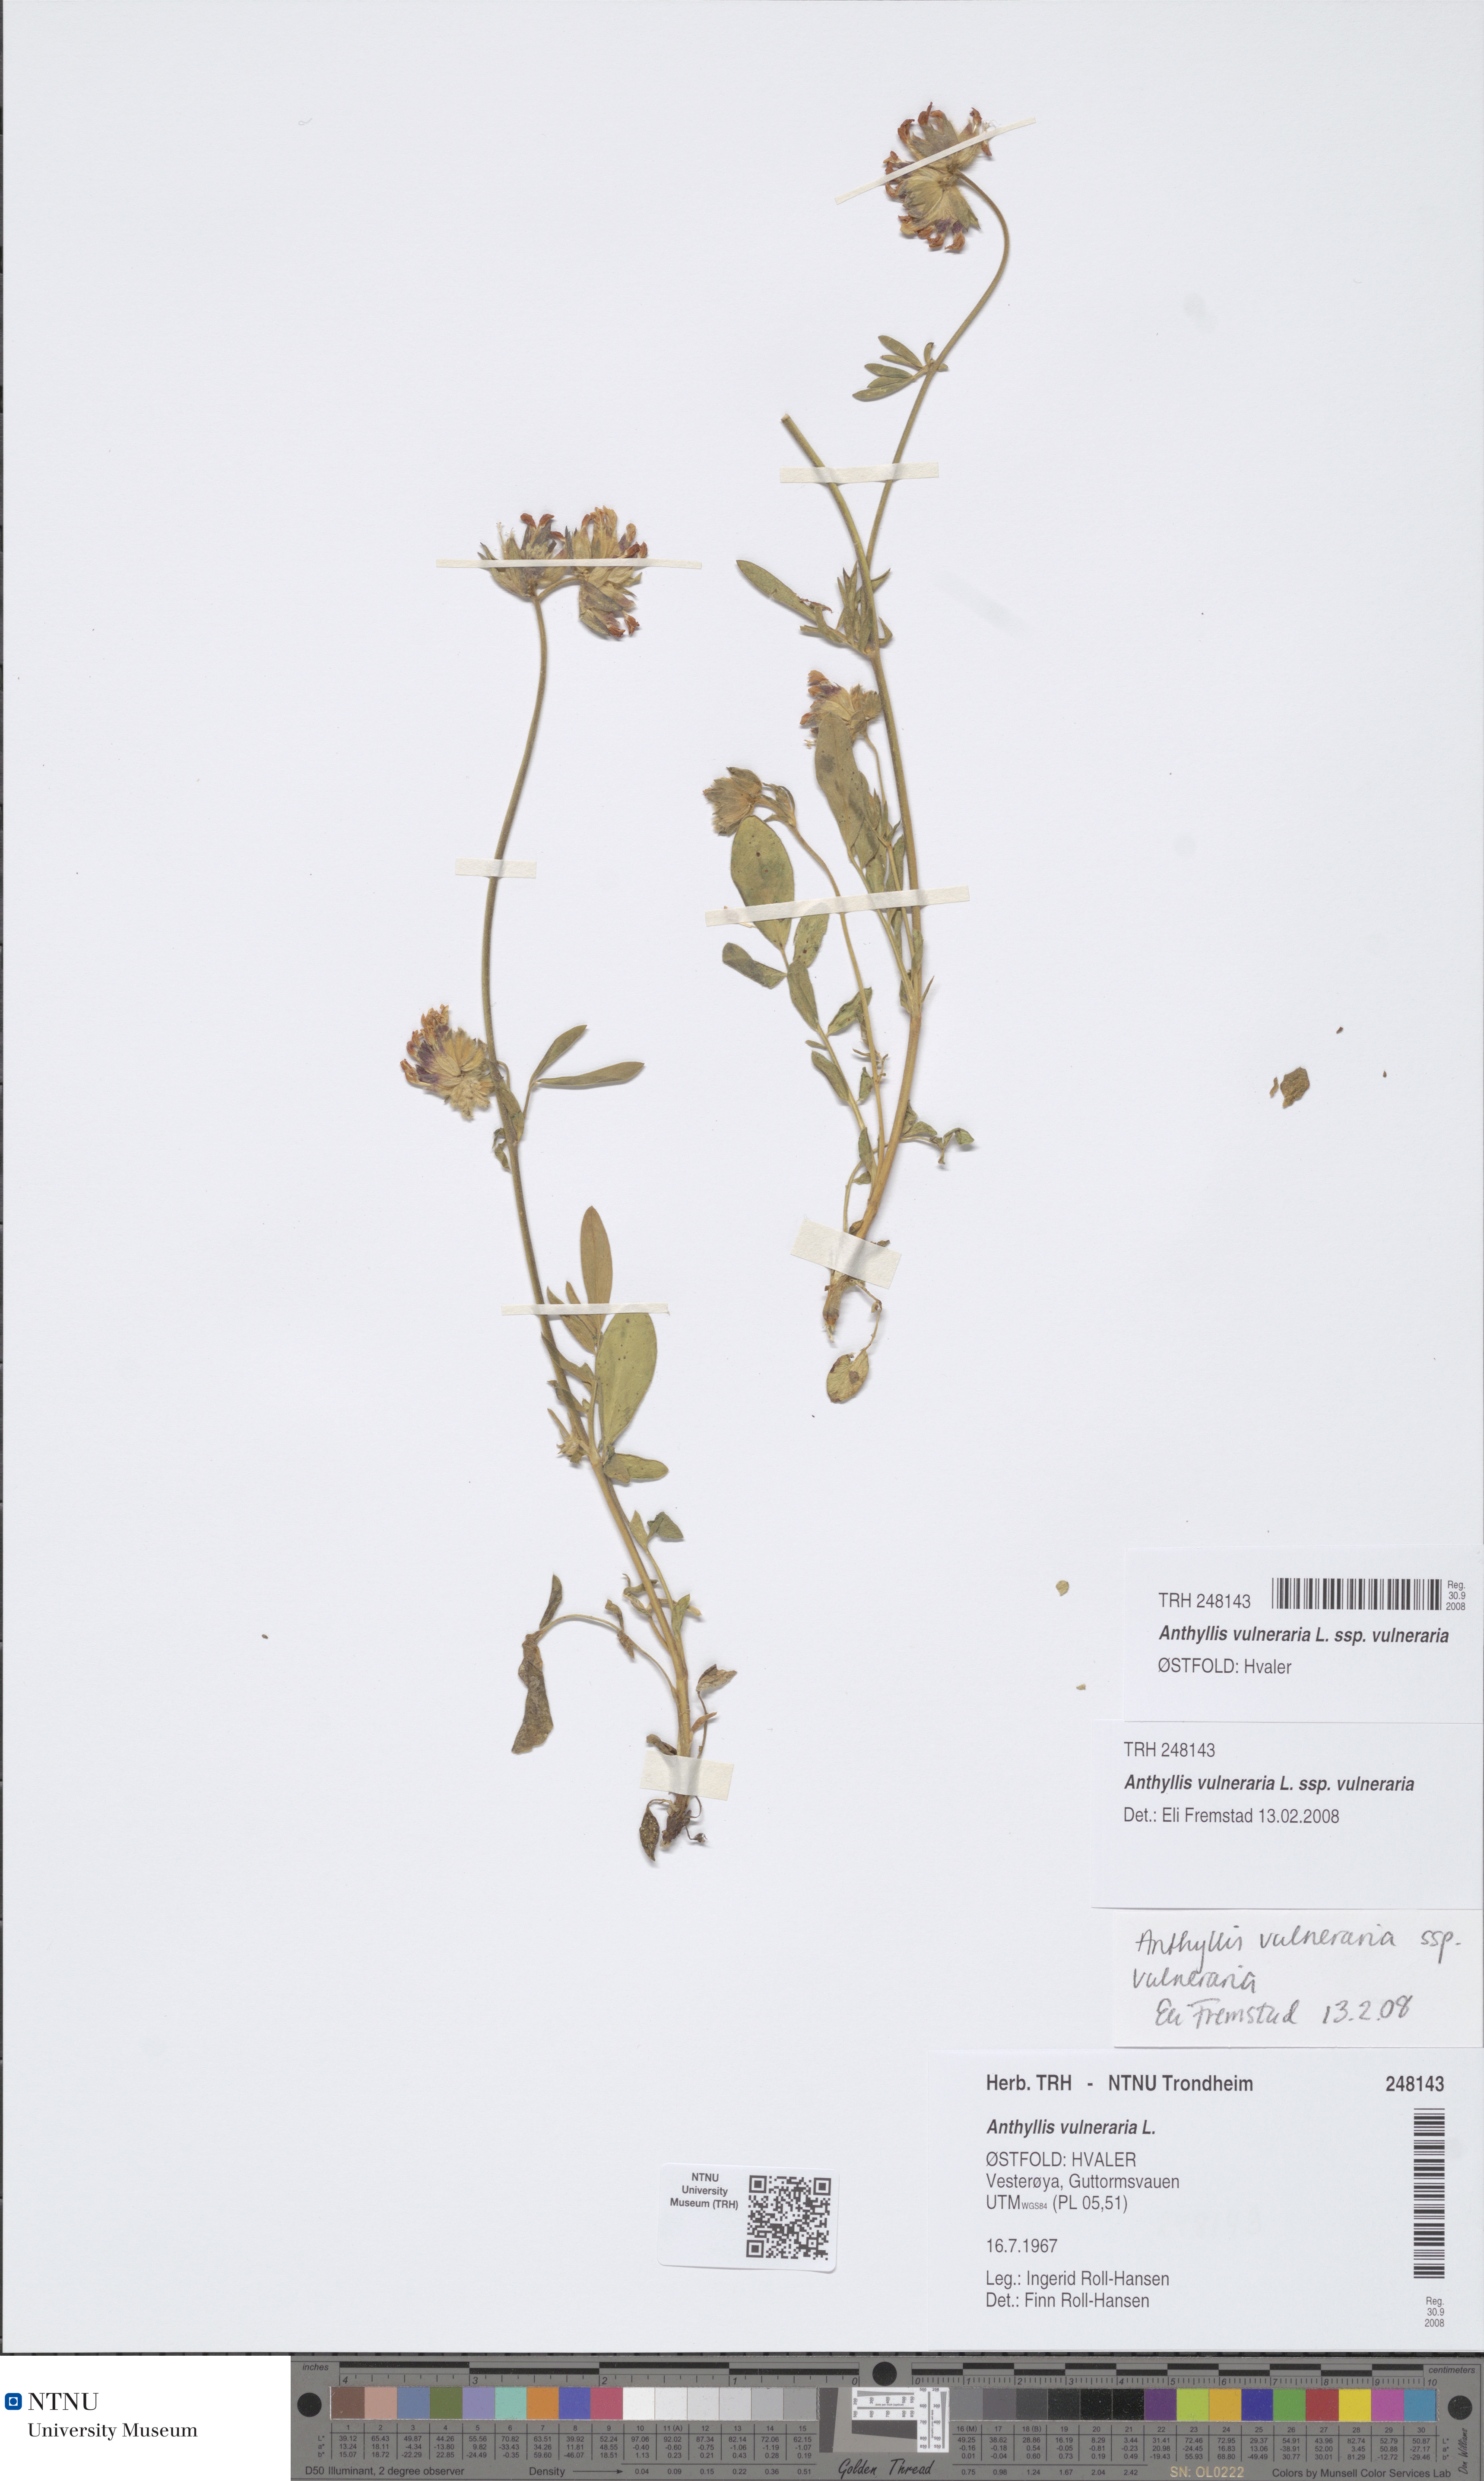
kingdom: Plantae
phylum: Tracheophyta
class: Magnoliopsida
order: Fabales
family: Fabaceae
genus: Anthyllis
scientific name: Anthyllis vulneraria
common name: Kidney vetch
